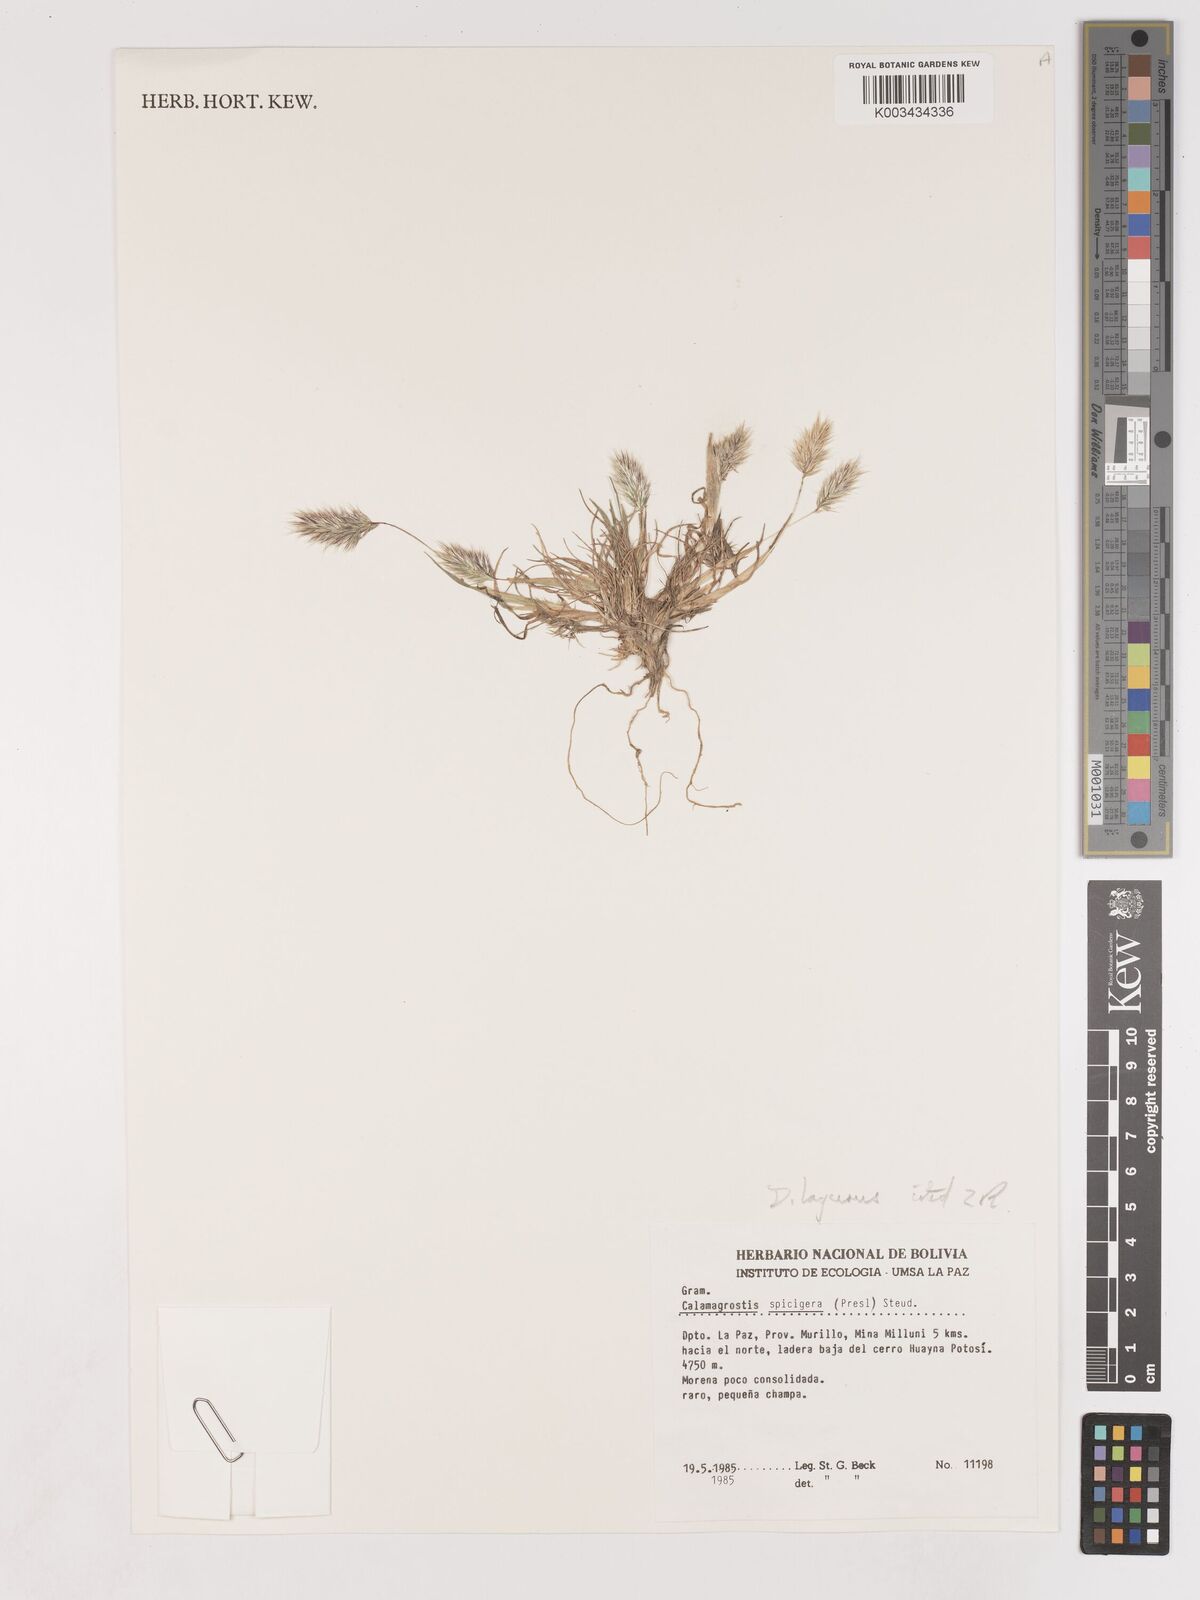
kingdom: Plantae
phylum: Tracheophyta
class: Liliopsida
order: Poales
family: Poaceae
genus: Calamagrostis
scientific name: Calamagrostis
